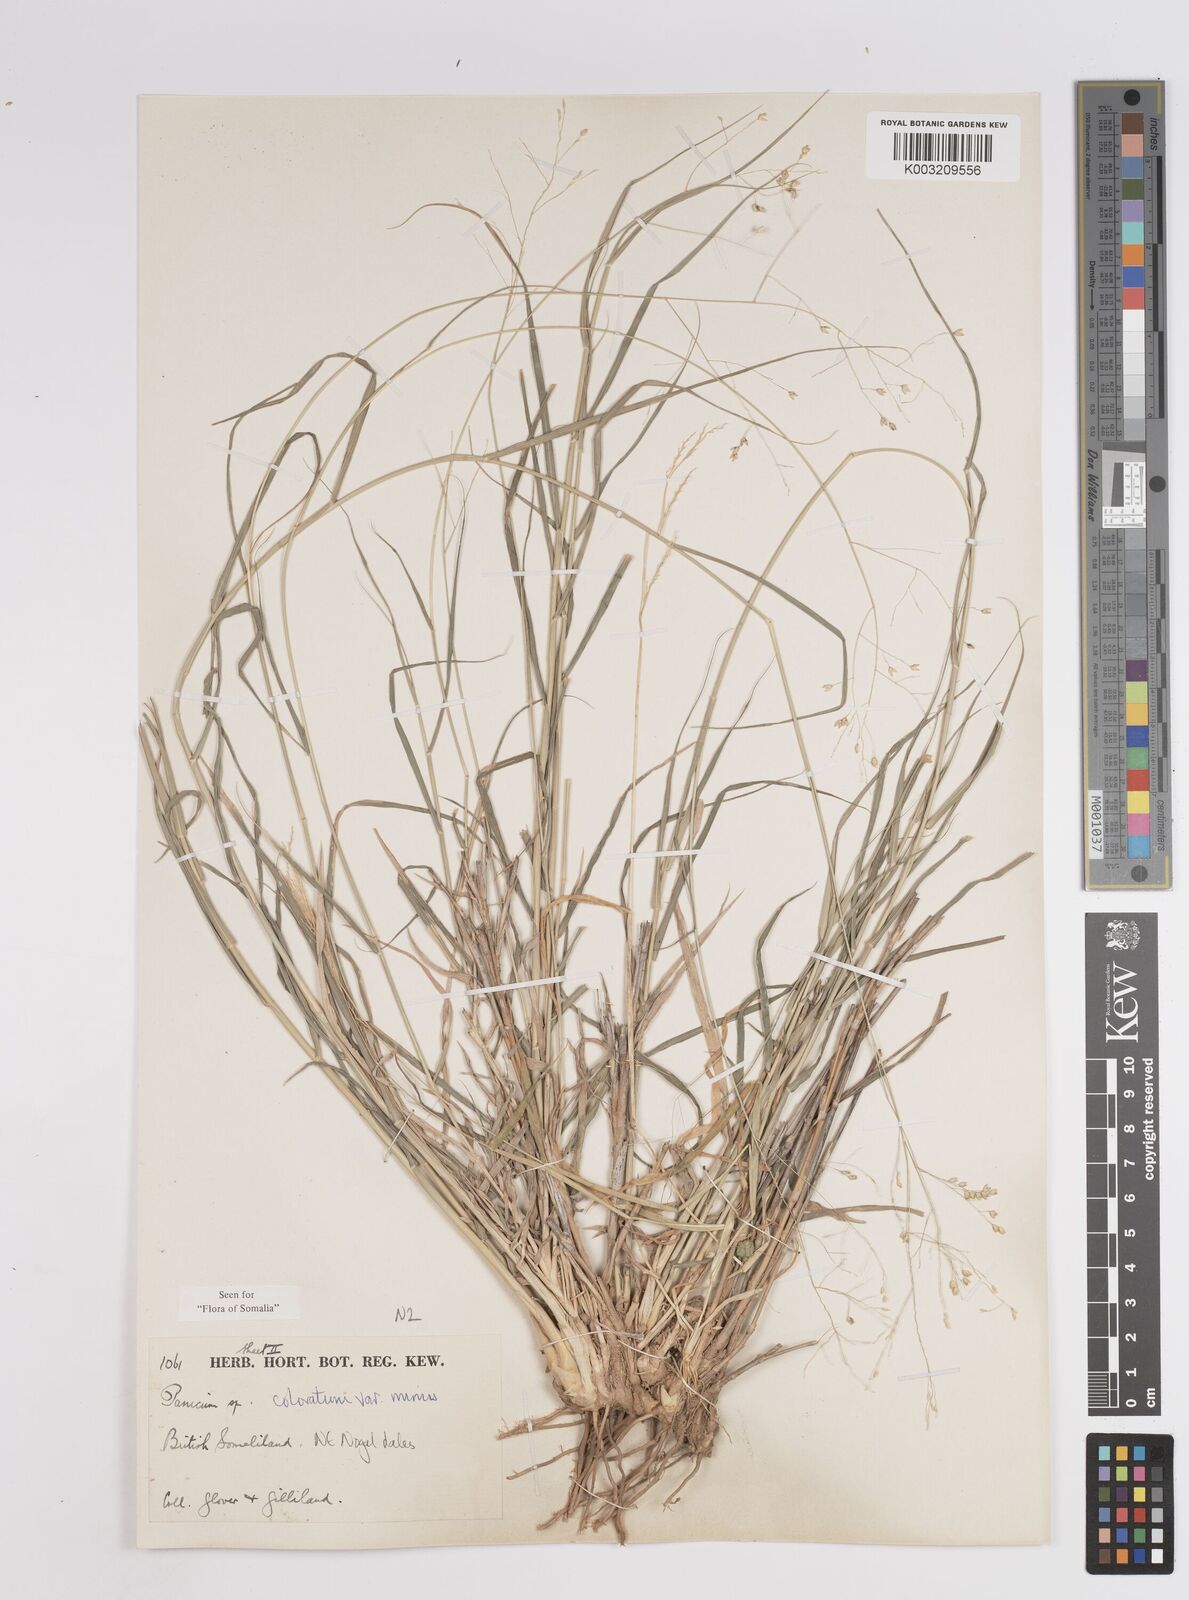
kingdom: Plantae
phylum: Tracheophyta
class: Liliopsida
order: Poales
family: Poaceae
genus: Panicum
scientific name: Panicum coloratum
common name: Kleingrass
